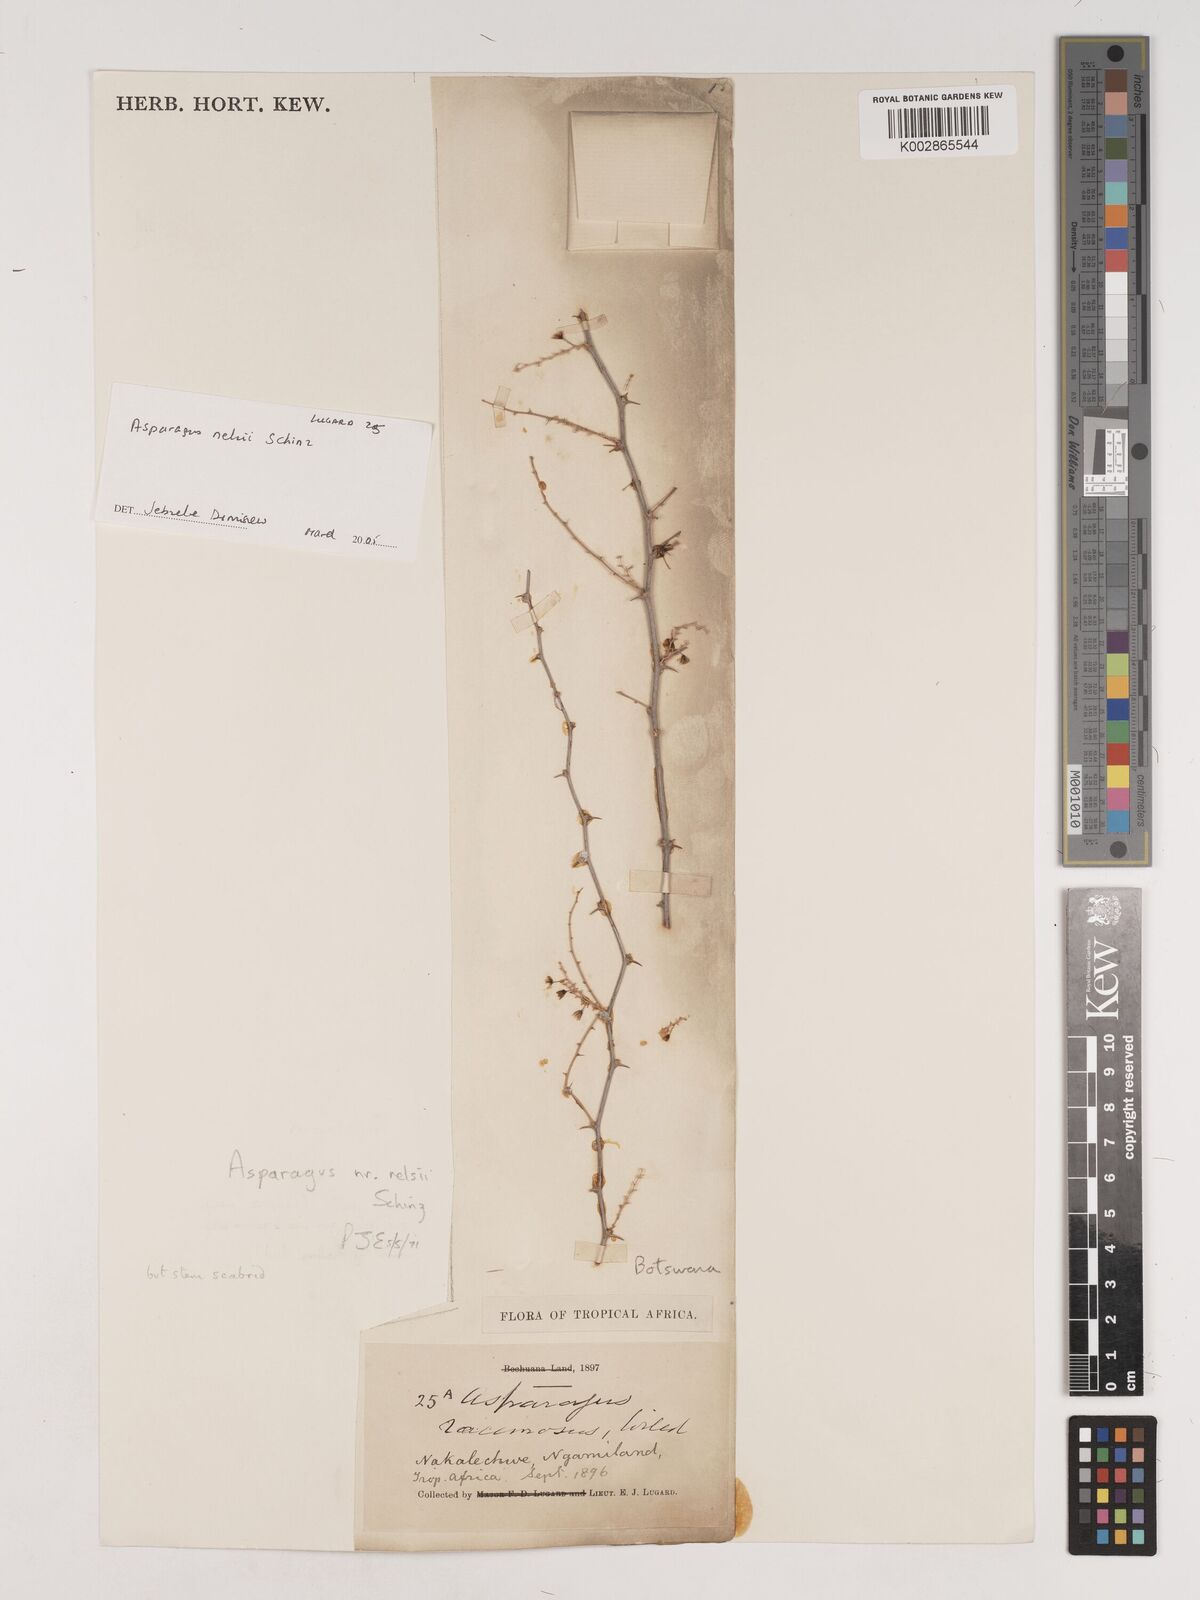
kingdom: Plantae
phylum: Tracheophyta
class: Liliopsida
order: Asparagales
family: Asparagaceae
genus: Asparagus
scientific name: Asparagus nelsii
